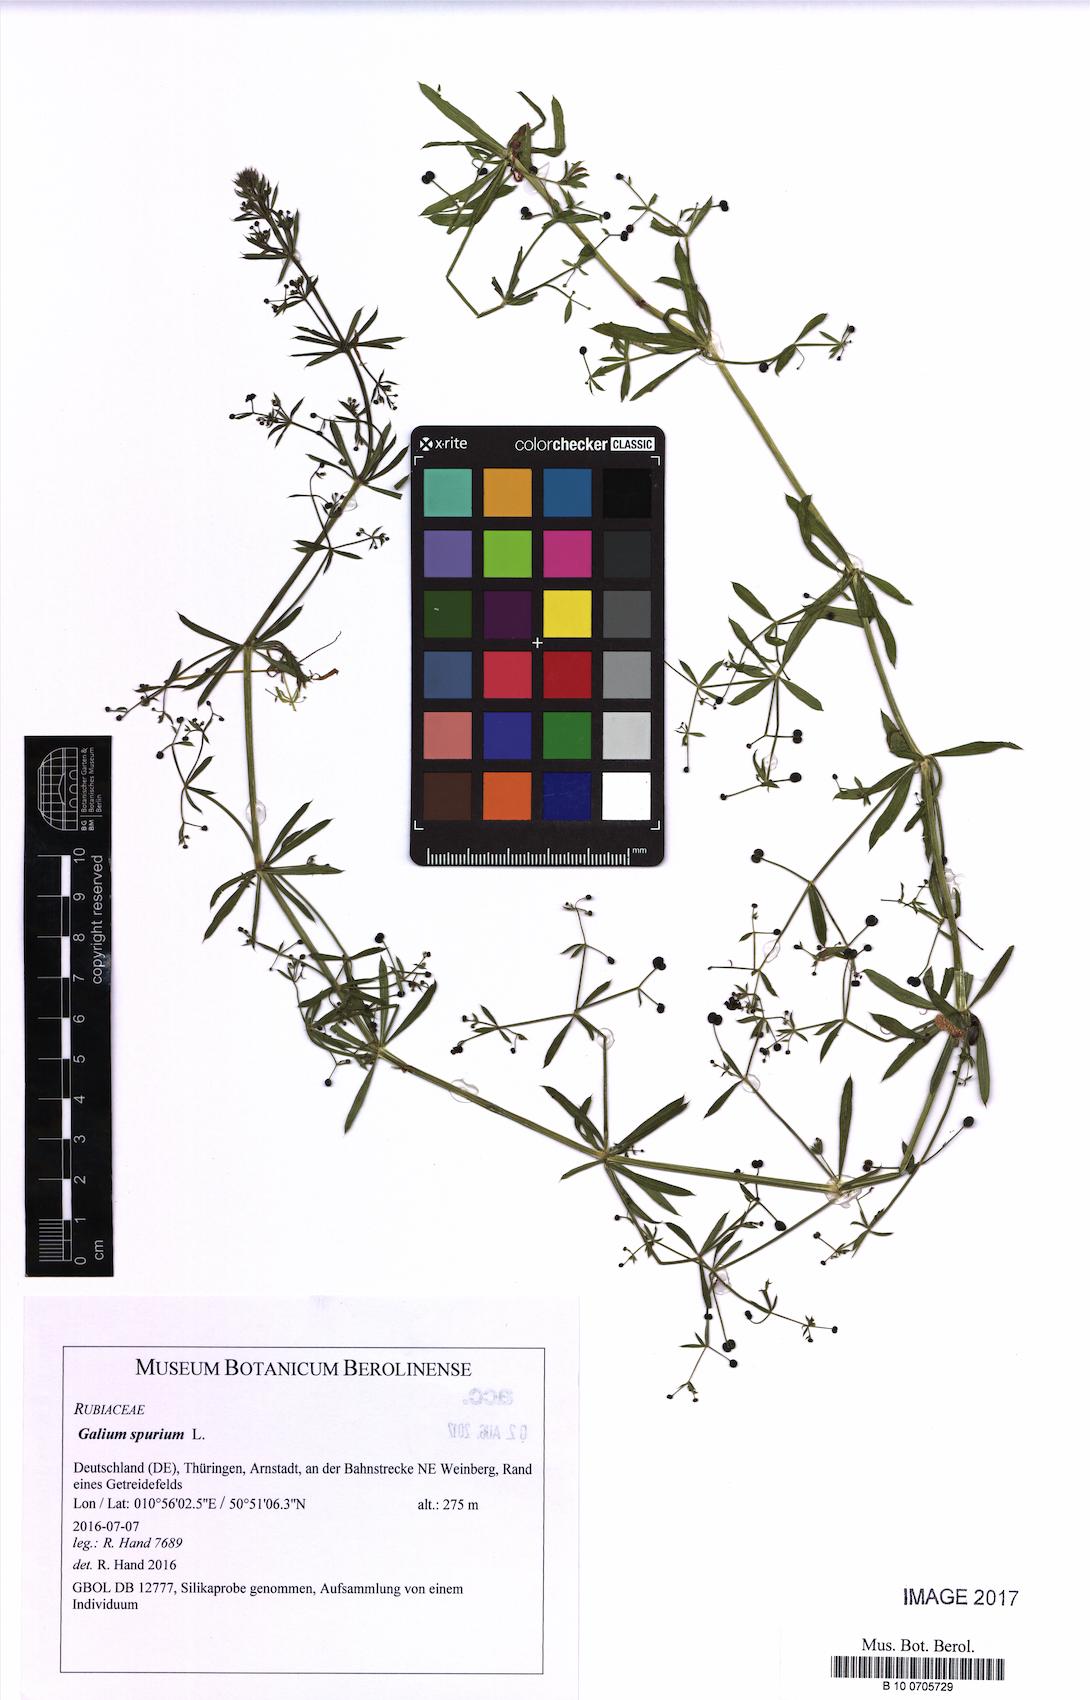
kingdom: Plantae
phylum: Tracheophyta
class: Magnoliopsida
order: Gentianales
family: Rubiaceae
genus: Galium
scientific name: Galium spurium
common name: False cleavers
